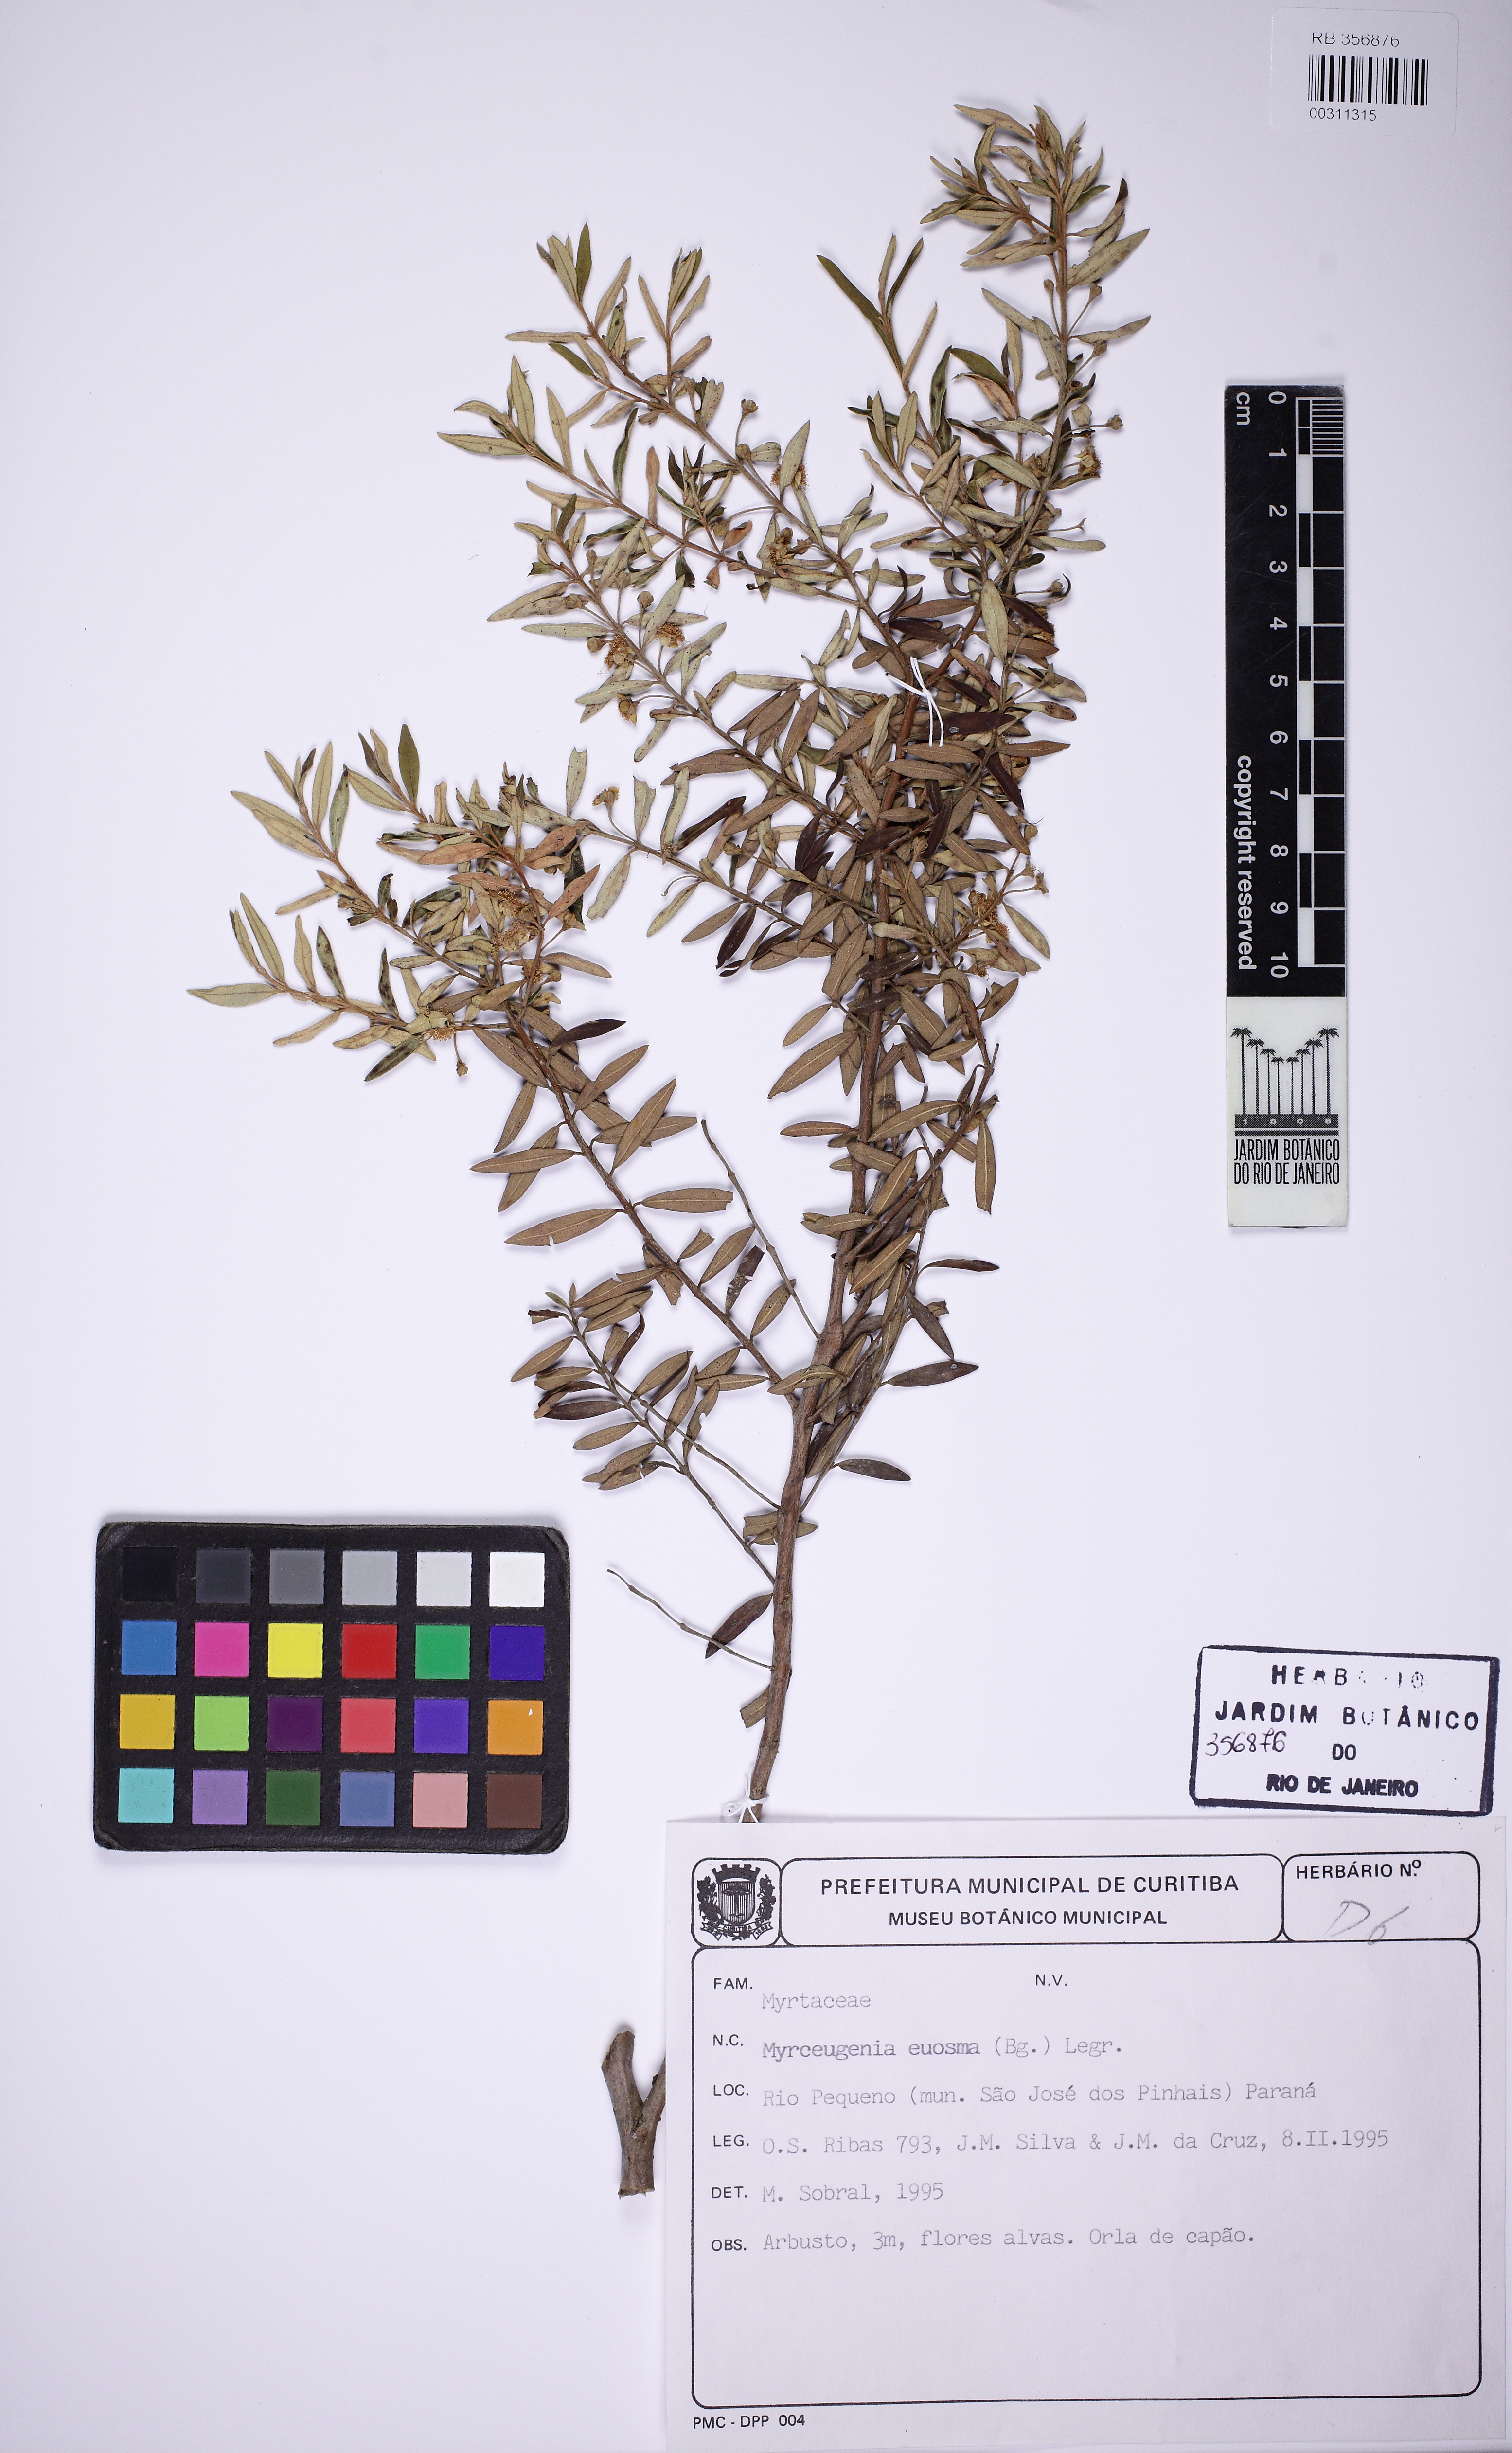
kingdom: Plantae
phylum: Tracheophyta
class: Magnoliopsida
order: Myrtales
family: Myrtaceae
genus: Myrceugenia
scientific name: Myrceugenia euosma
